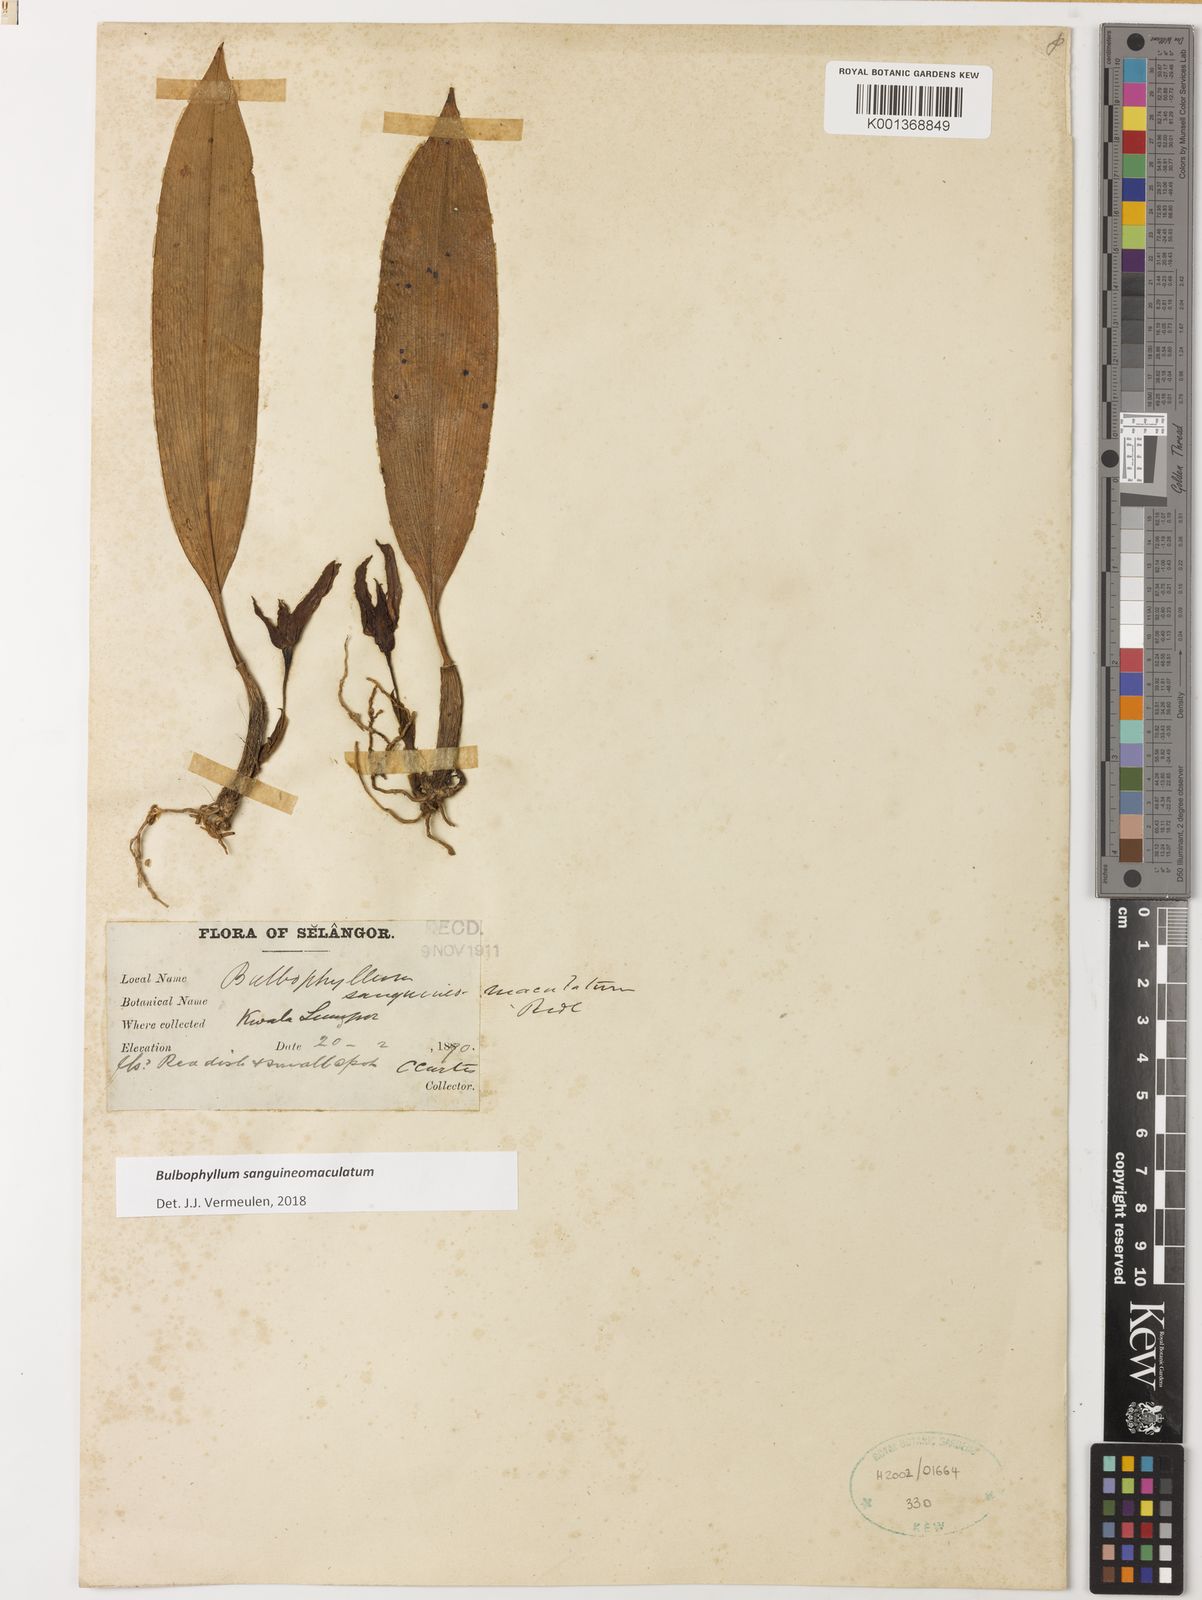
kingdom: Plantae
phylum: Tracheophyta
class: Liliopsida
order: Asparagales
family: Orchidaceae
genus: Bulbophyllum
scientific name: Bulbophyllum sanguineomaculatum
